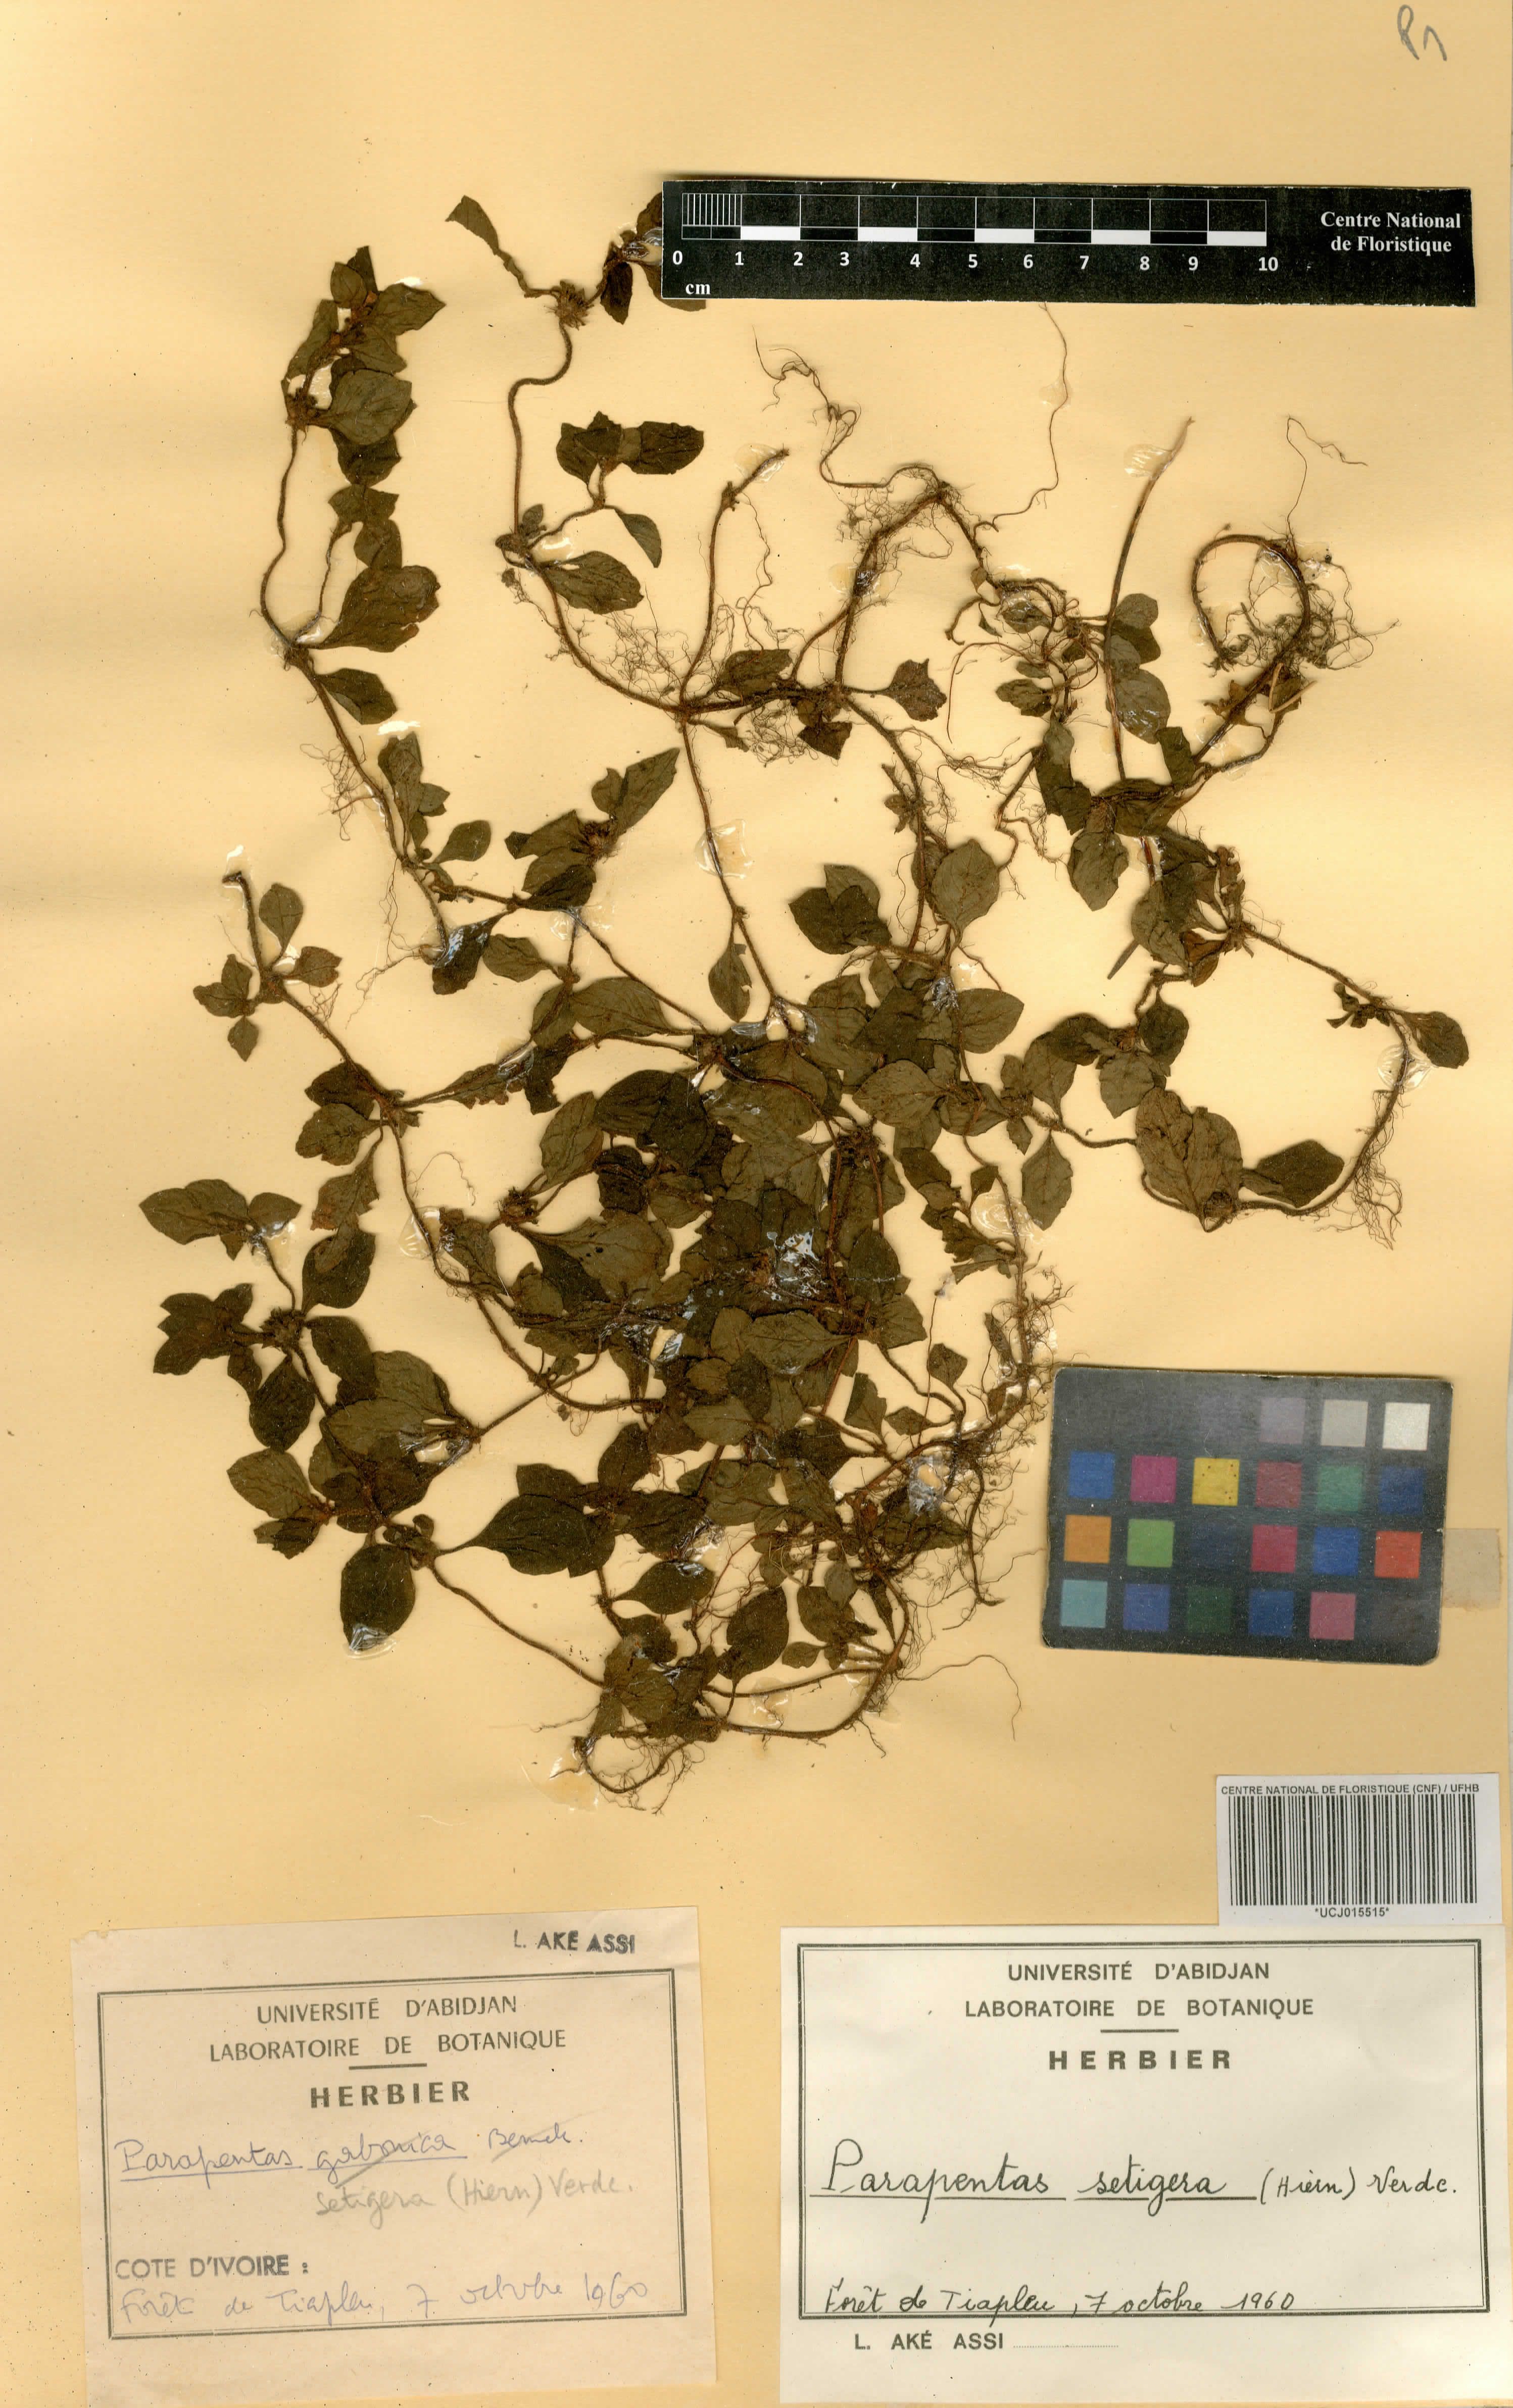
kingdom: Plantae
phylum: Tracheophyta
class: Magnoliopsida
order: Gentianales
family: Rubiaceae
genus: Parapentas
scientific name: Parapentas setigera
